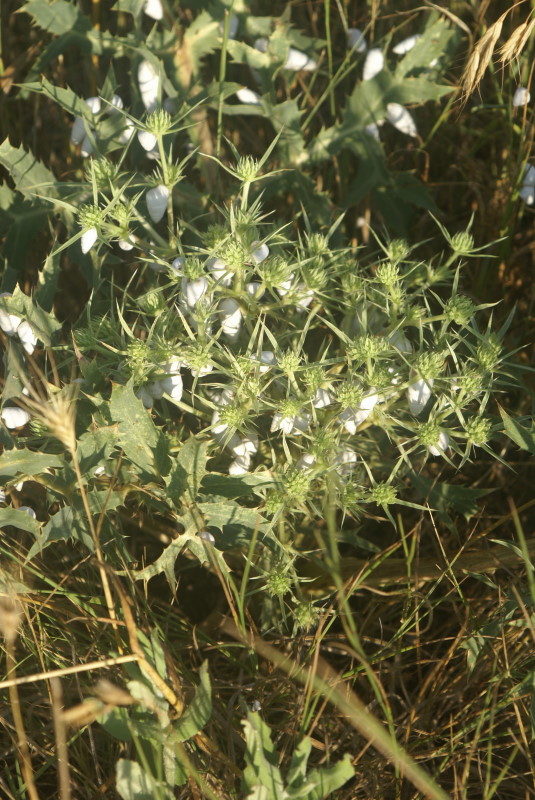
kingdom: Plantae
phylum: Tracheophyta
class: Magnoliopsida
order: Apiales
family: Apiaceae
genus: Eryngium
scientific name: Eryngium campestre
